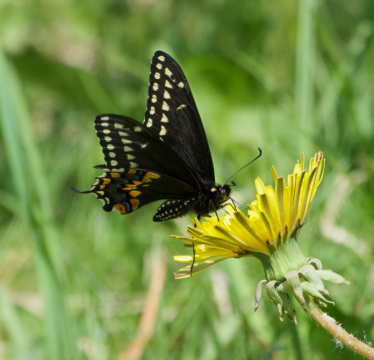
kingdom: Animalia
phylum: Arthropoda
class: Insecta
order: Lepidoptera
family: Papilionidae
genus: Papilio
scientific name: Papilio polyxenes
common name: Black Swallowtail
